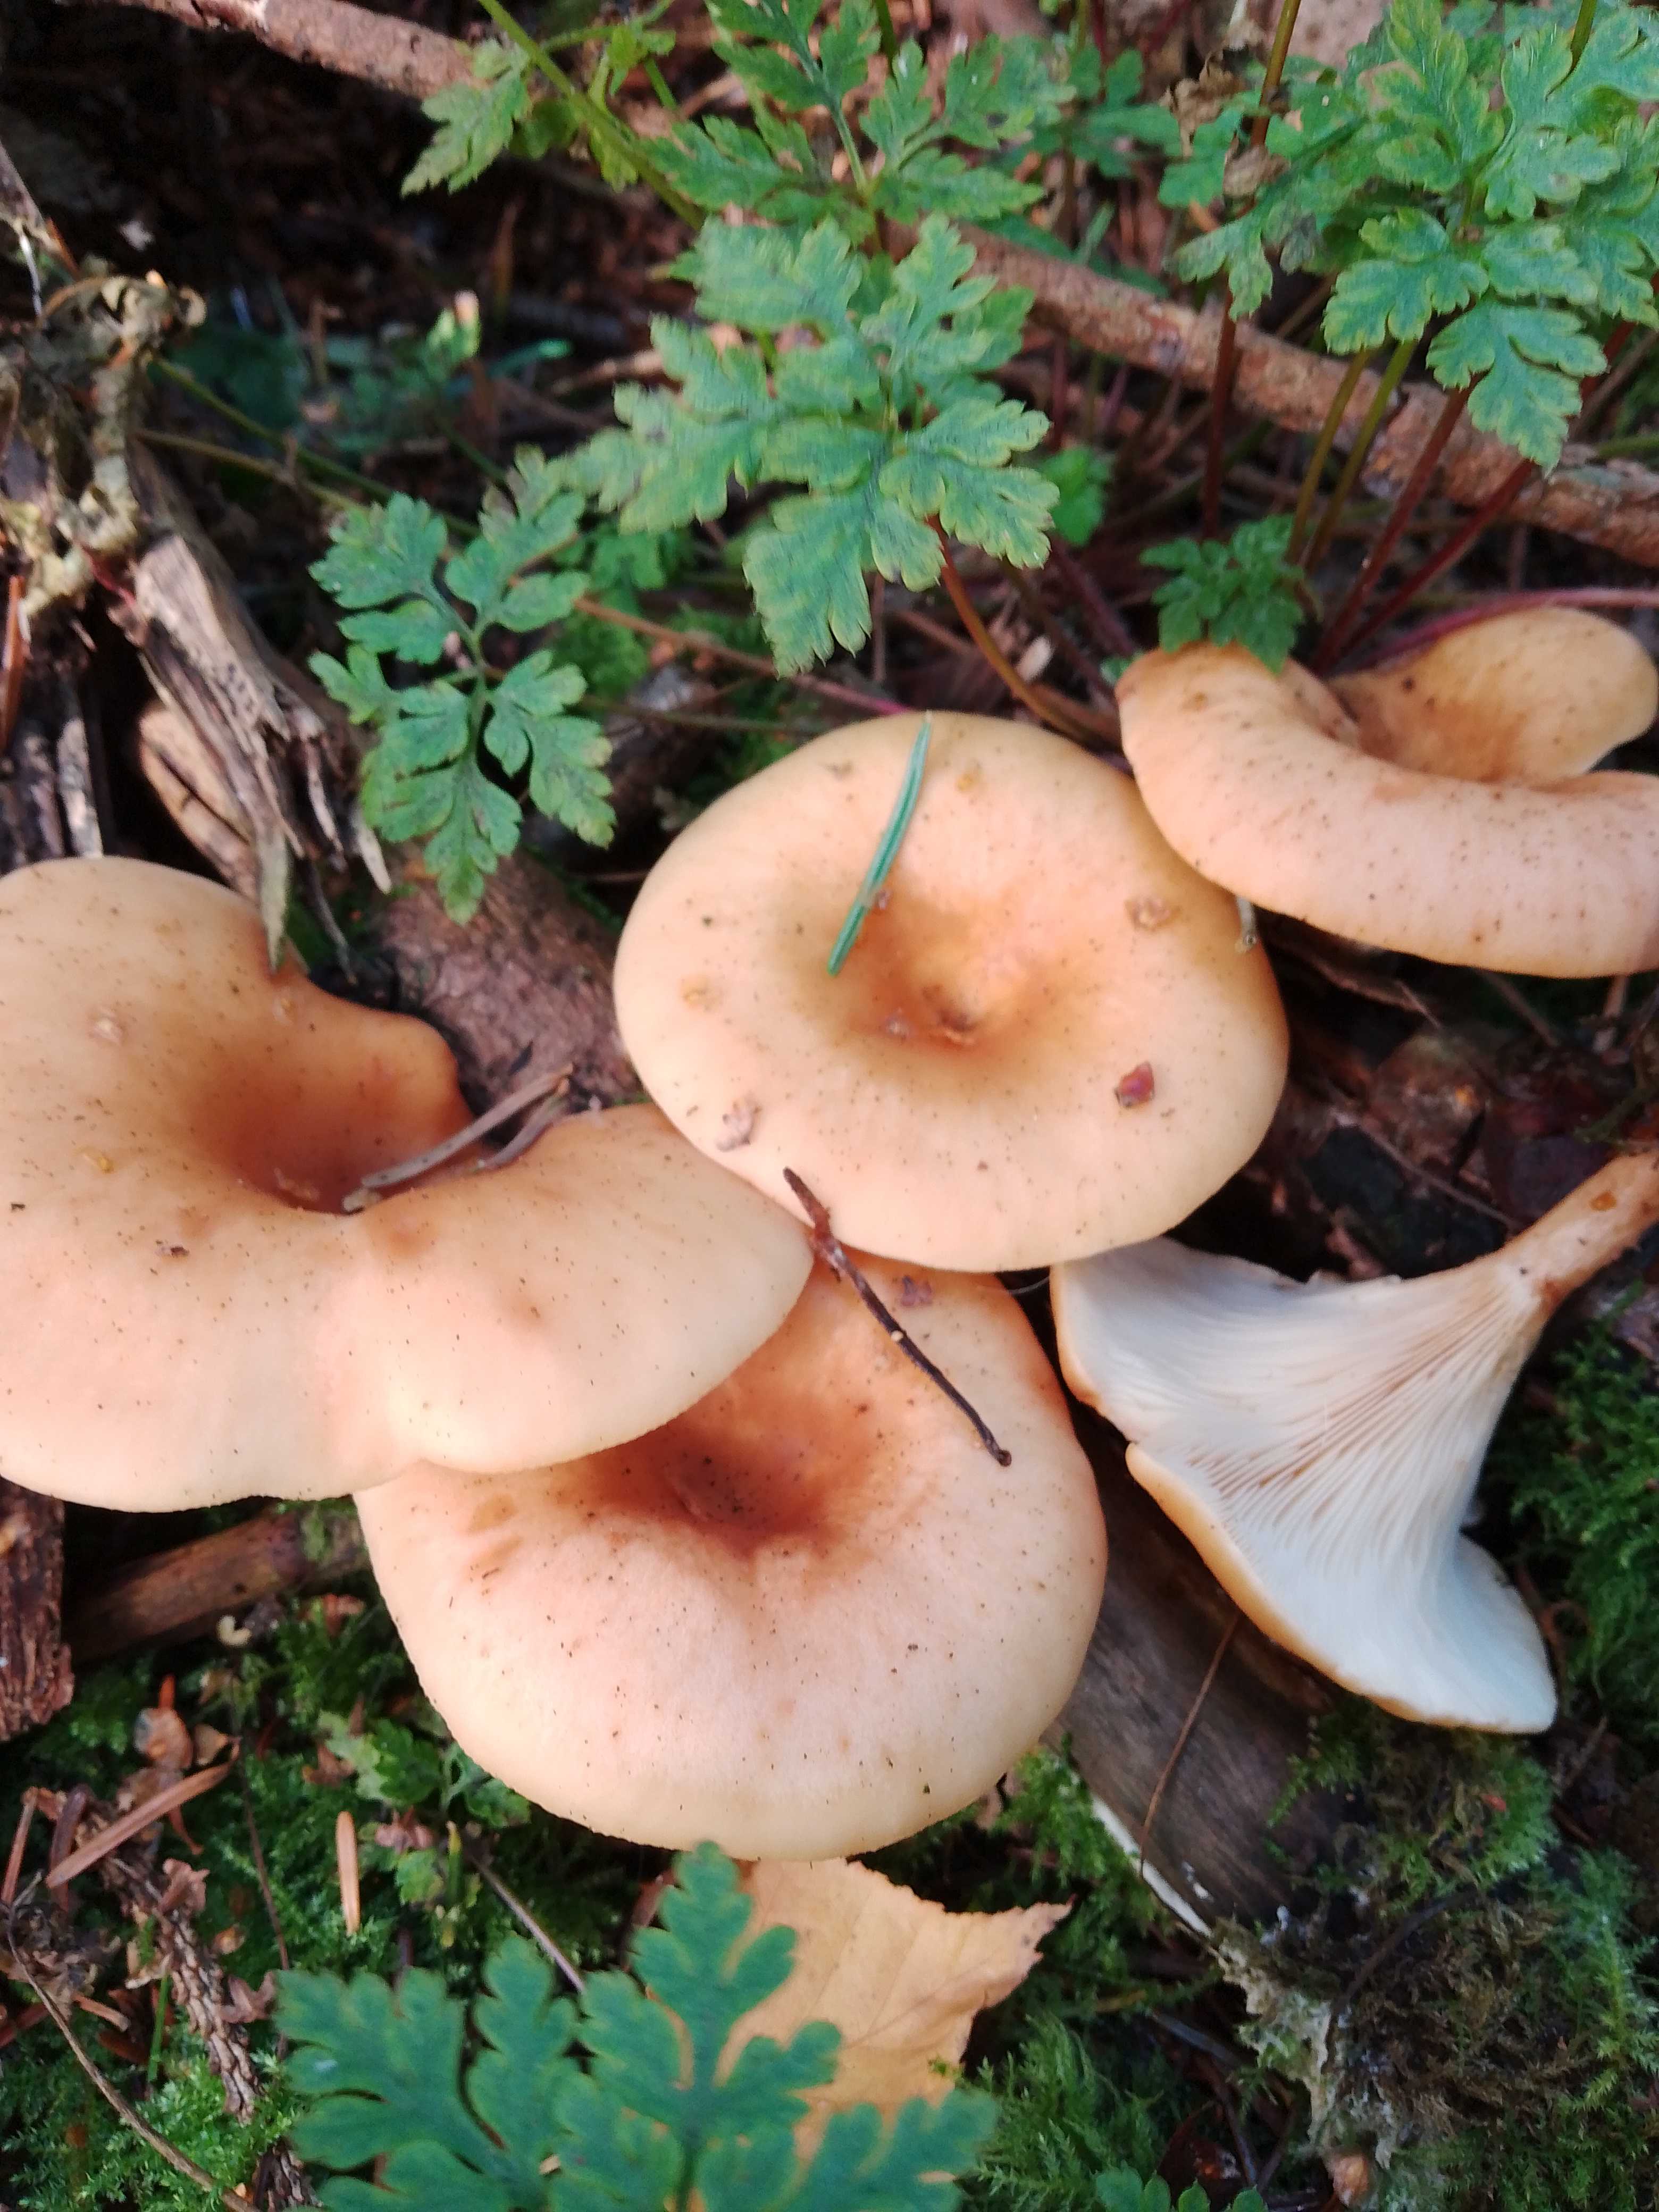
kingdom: Fungi
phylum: Basidiomycota
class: Agaricomycetes
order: Agaricales
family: Tricholomataceae
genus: Paralepista
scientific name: Paralepista flaccida
